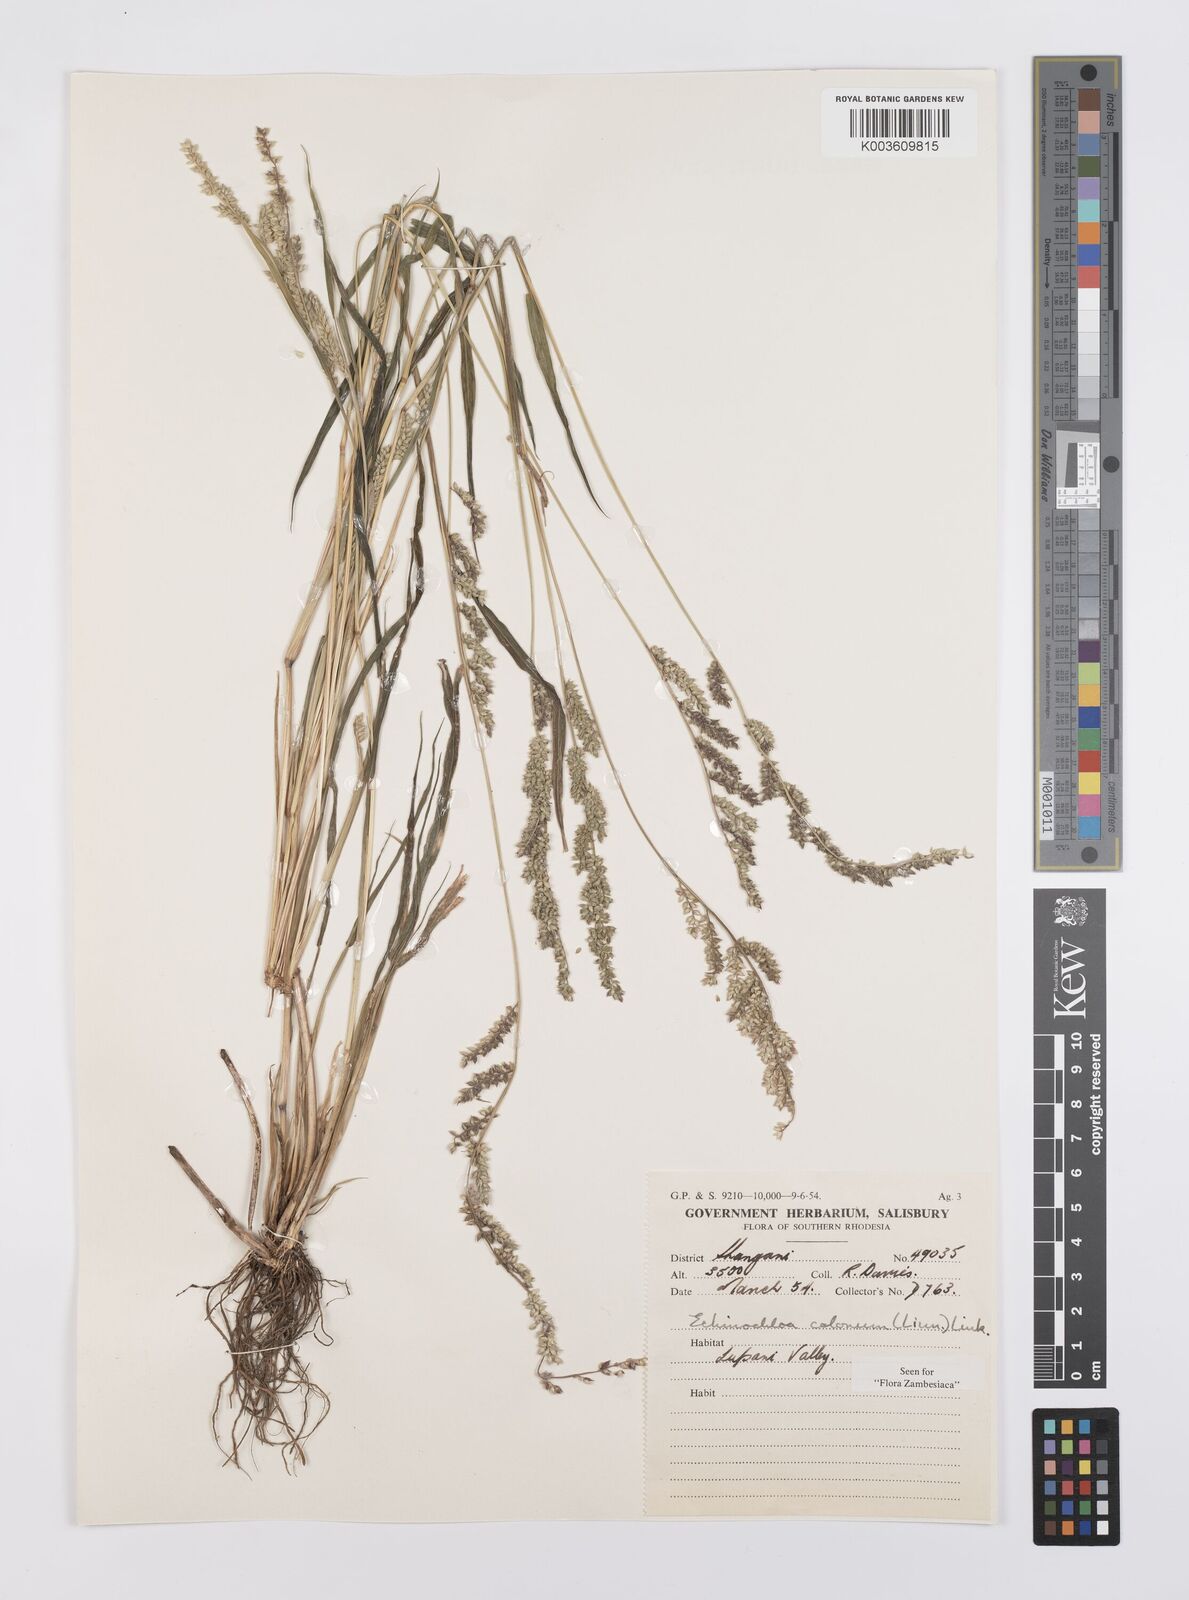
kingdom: Plantae
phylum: Tracheophyta
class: Liliopsida
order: Poales
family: Poaceae
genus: Echinochloa
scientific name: Echinochloa colonum
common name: Jungle rice
